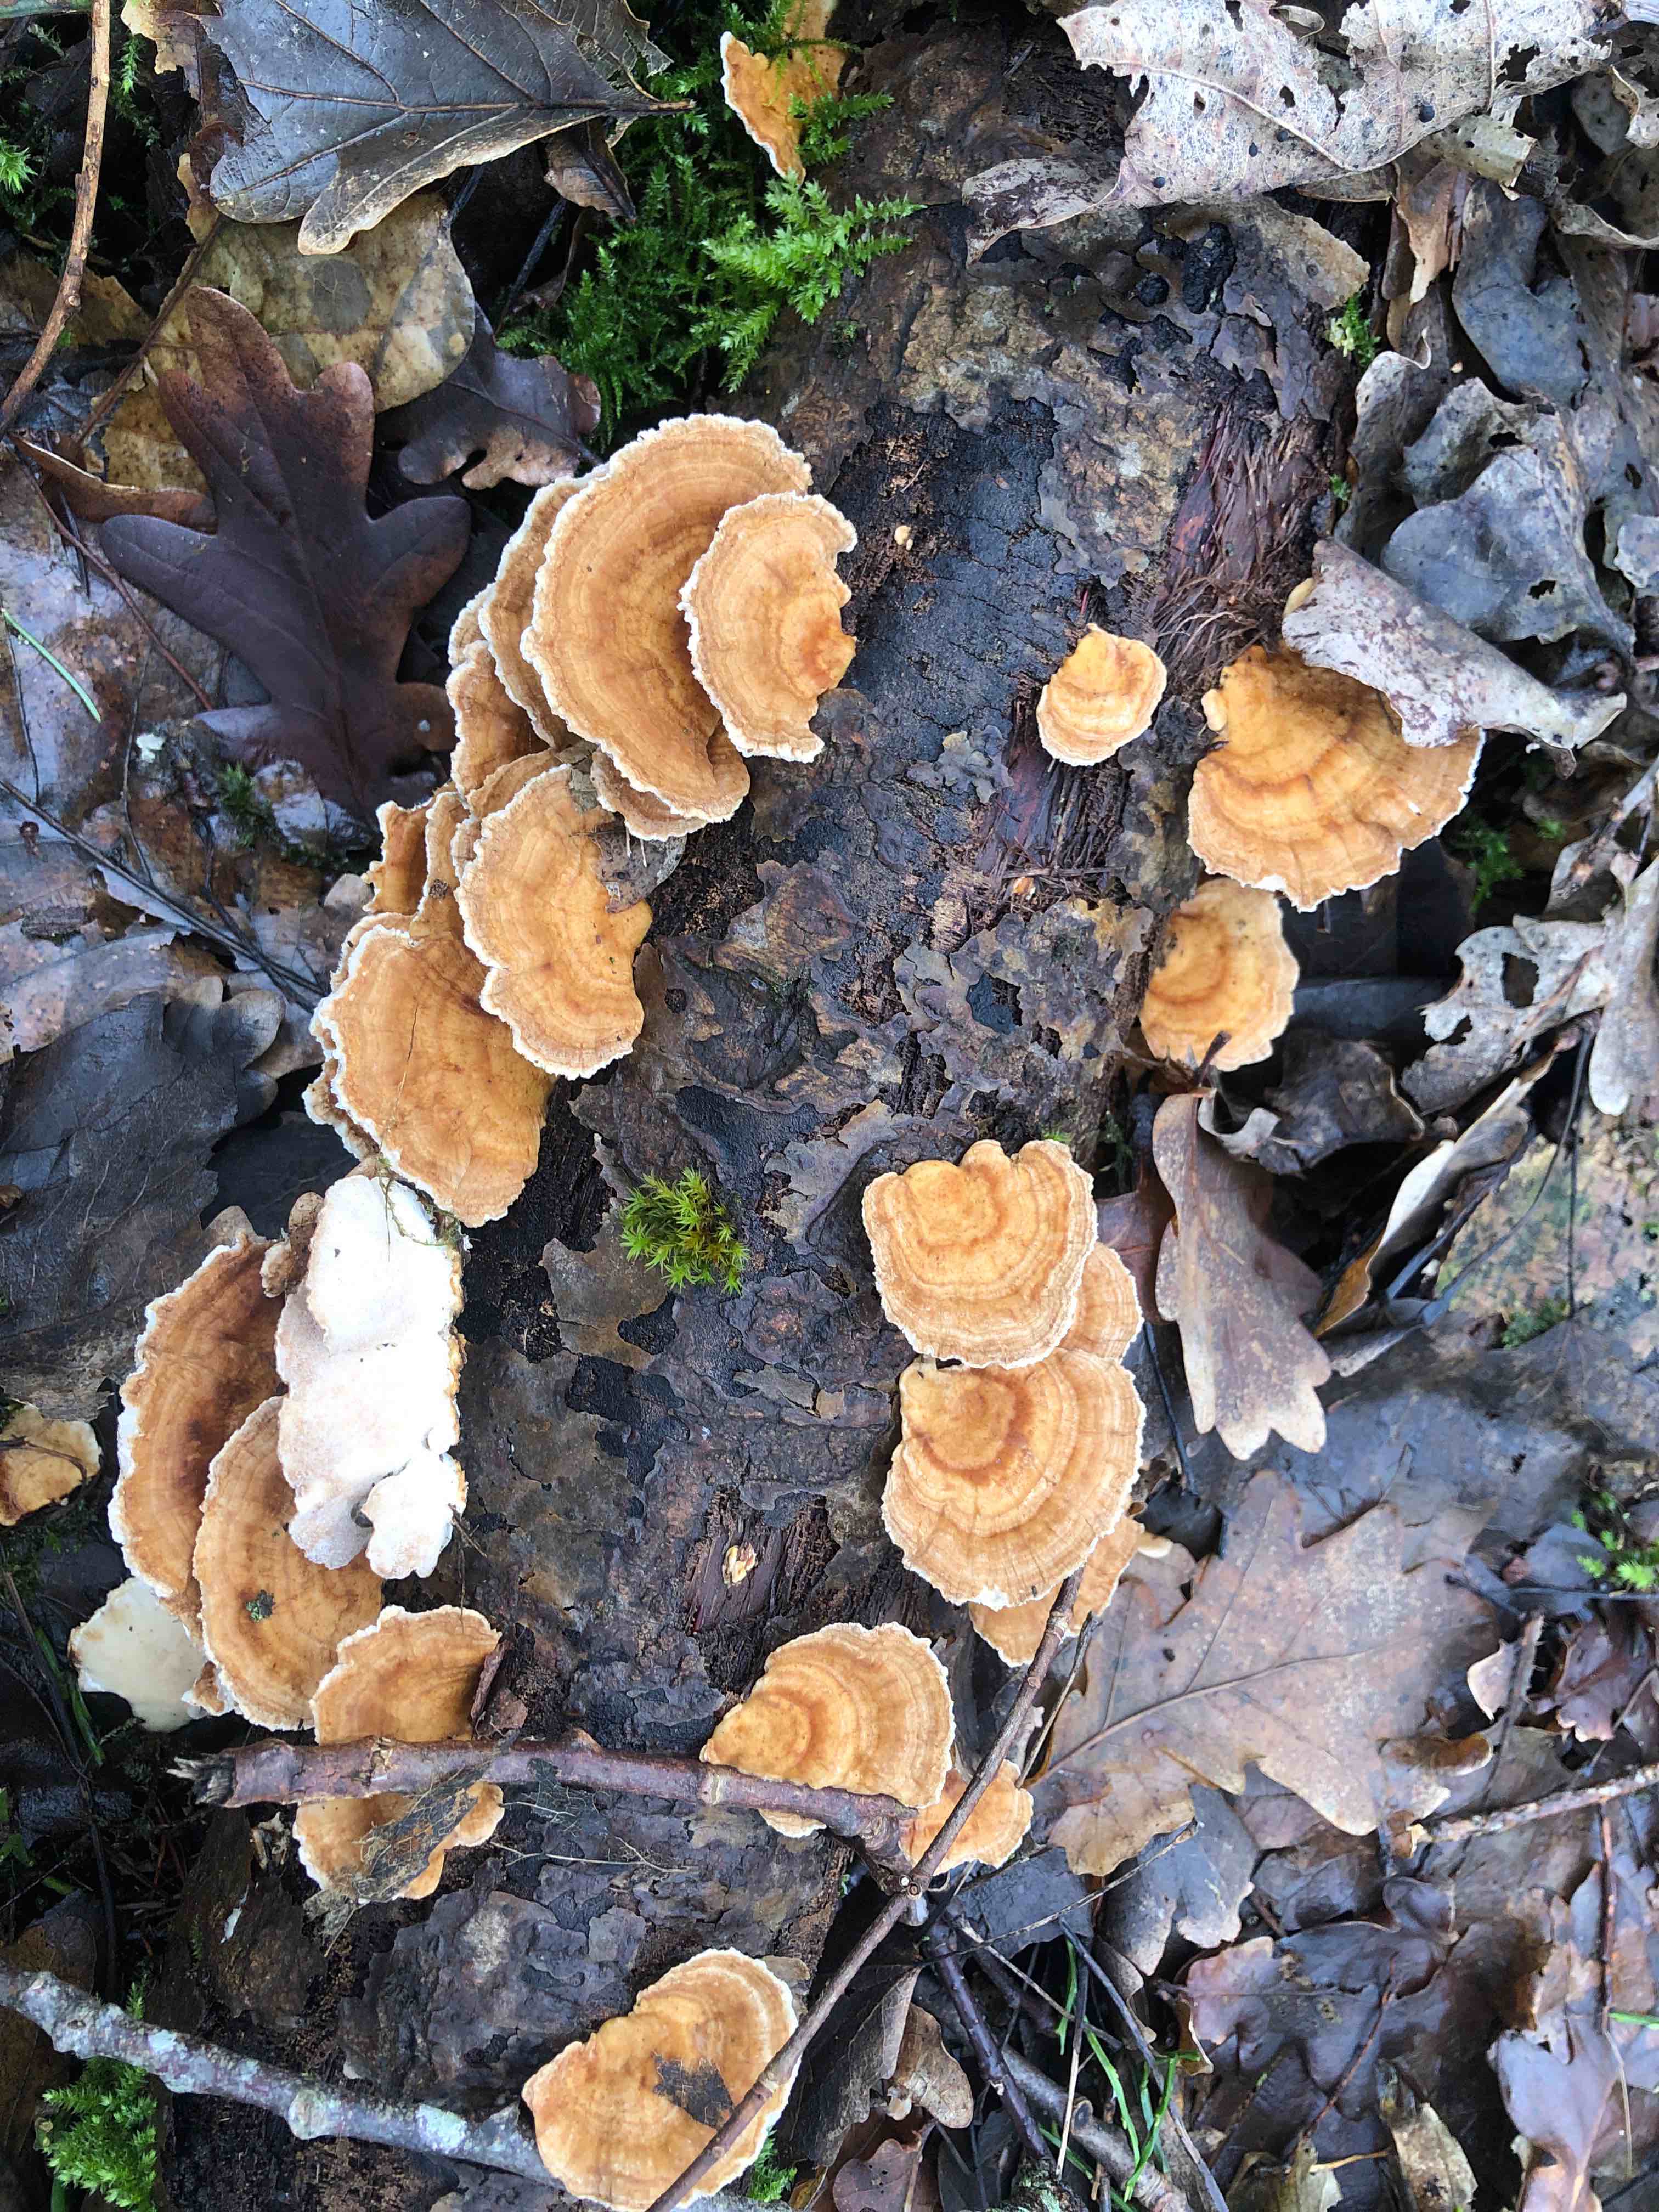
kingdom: Fungi
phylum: Basidiomycota
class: Agaricomycetes
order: Polyporales
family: Polyporaceae
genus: Trametes
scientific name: Trametes ochracea
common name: bæltet læderporesvamp
